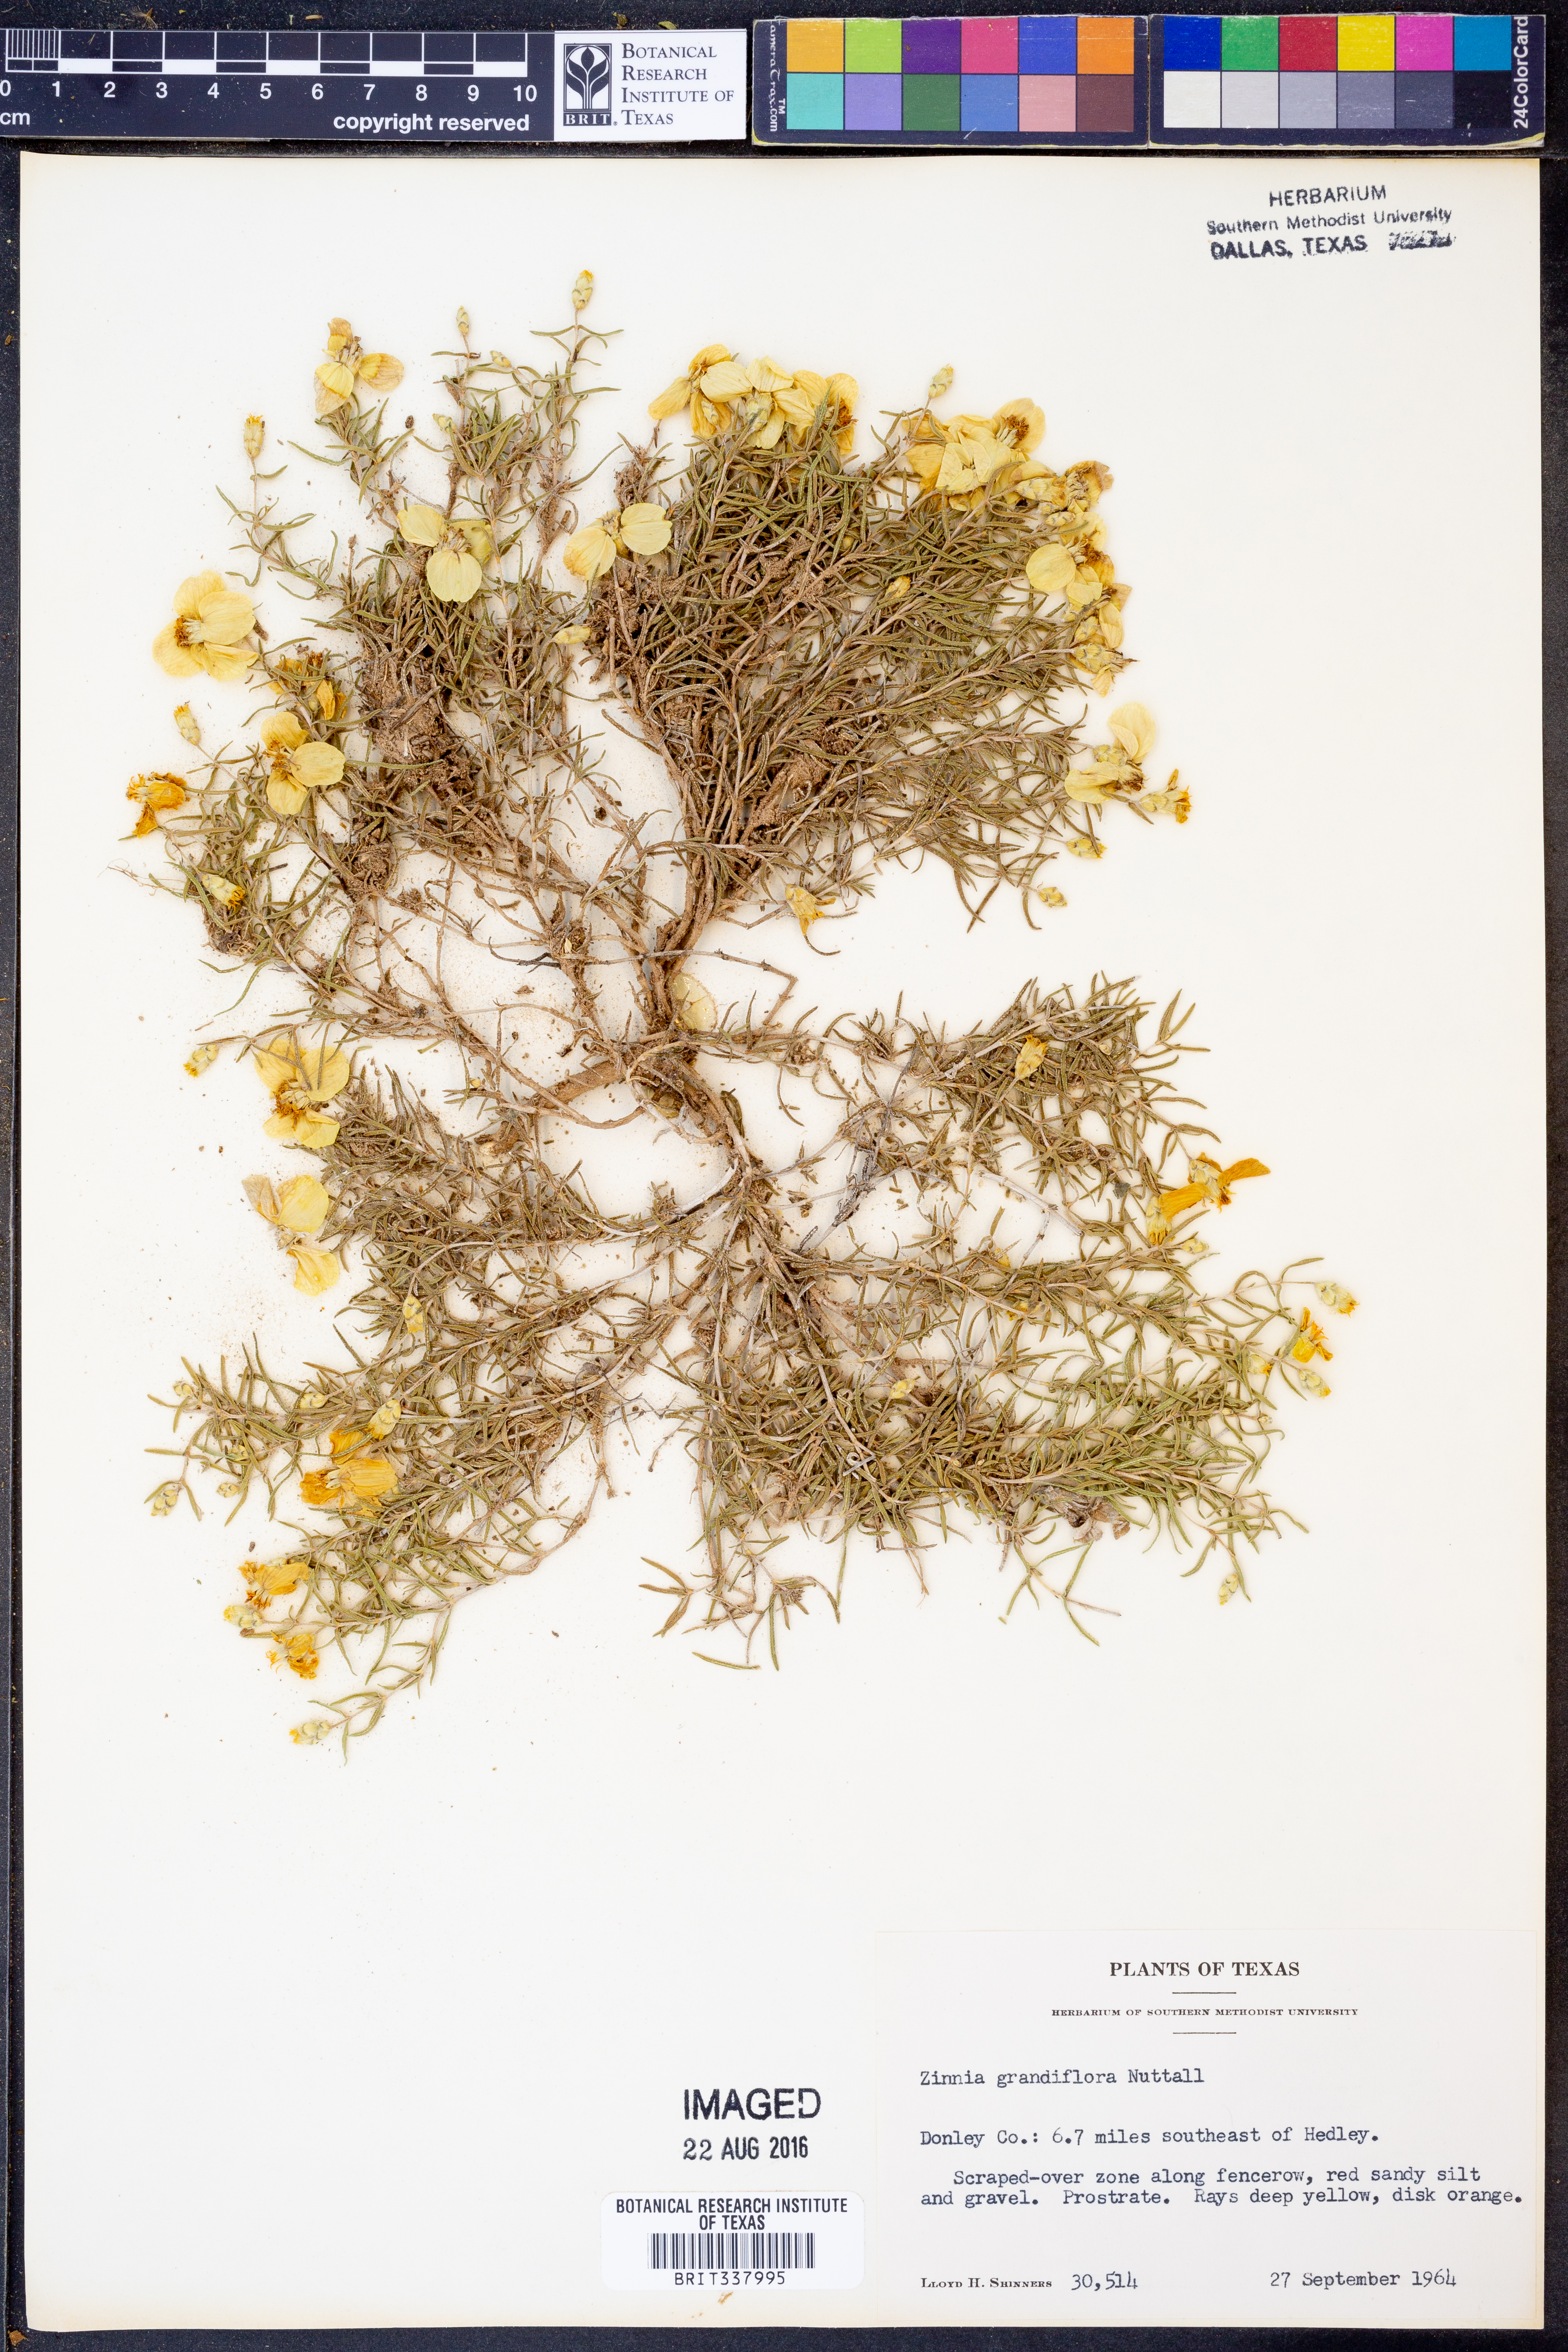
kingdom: Plantae
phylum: Tracheophyta
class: Magnoliopsida
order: Asterales
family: Asteraceae
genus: Zinnia
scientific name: Zinnia grandiflora
